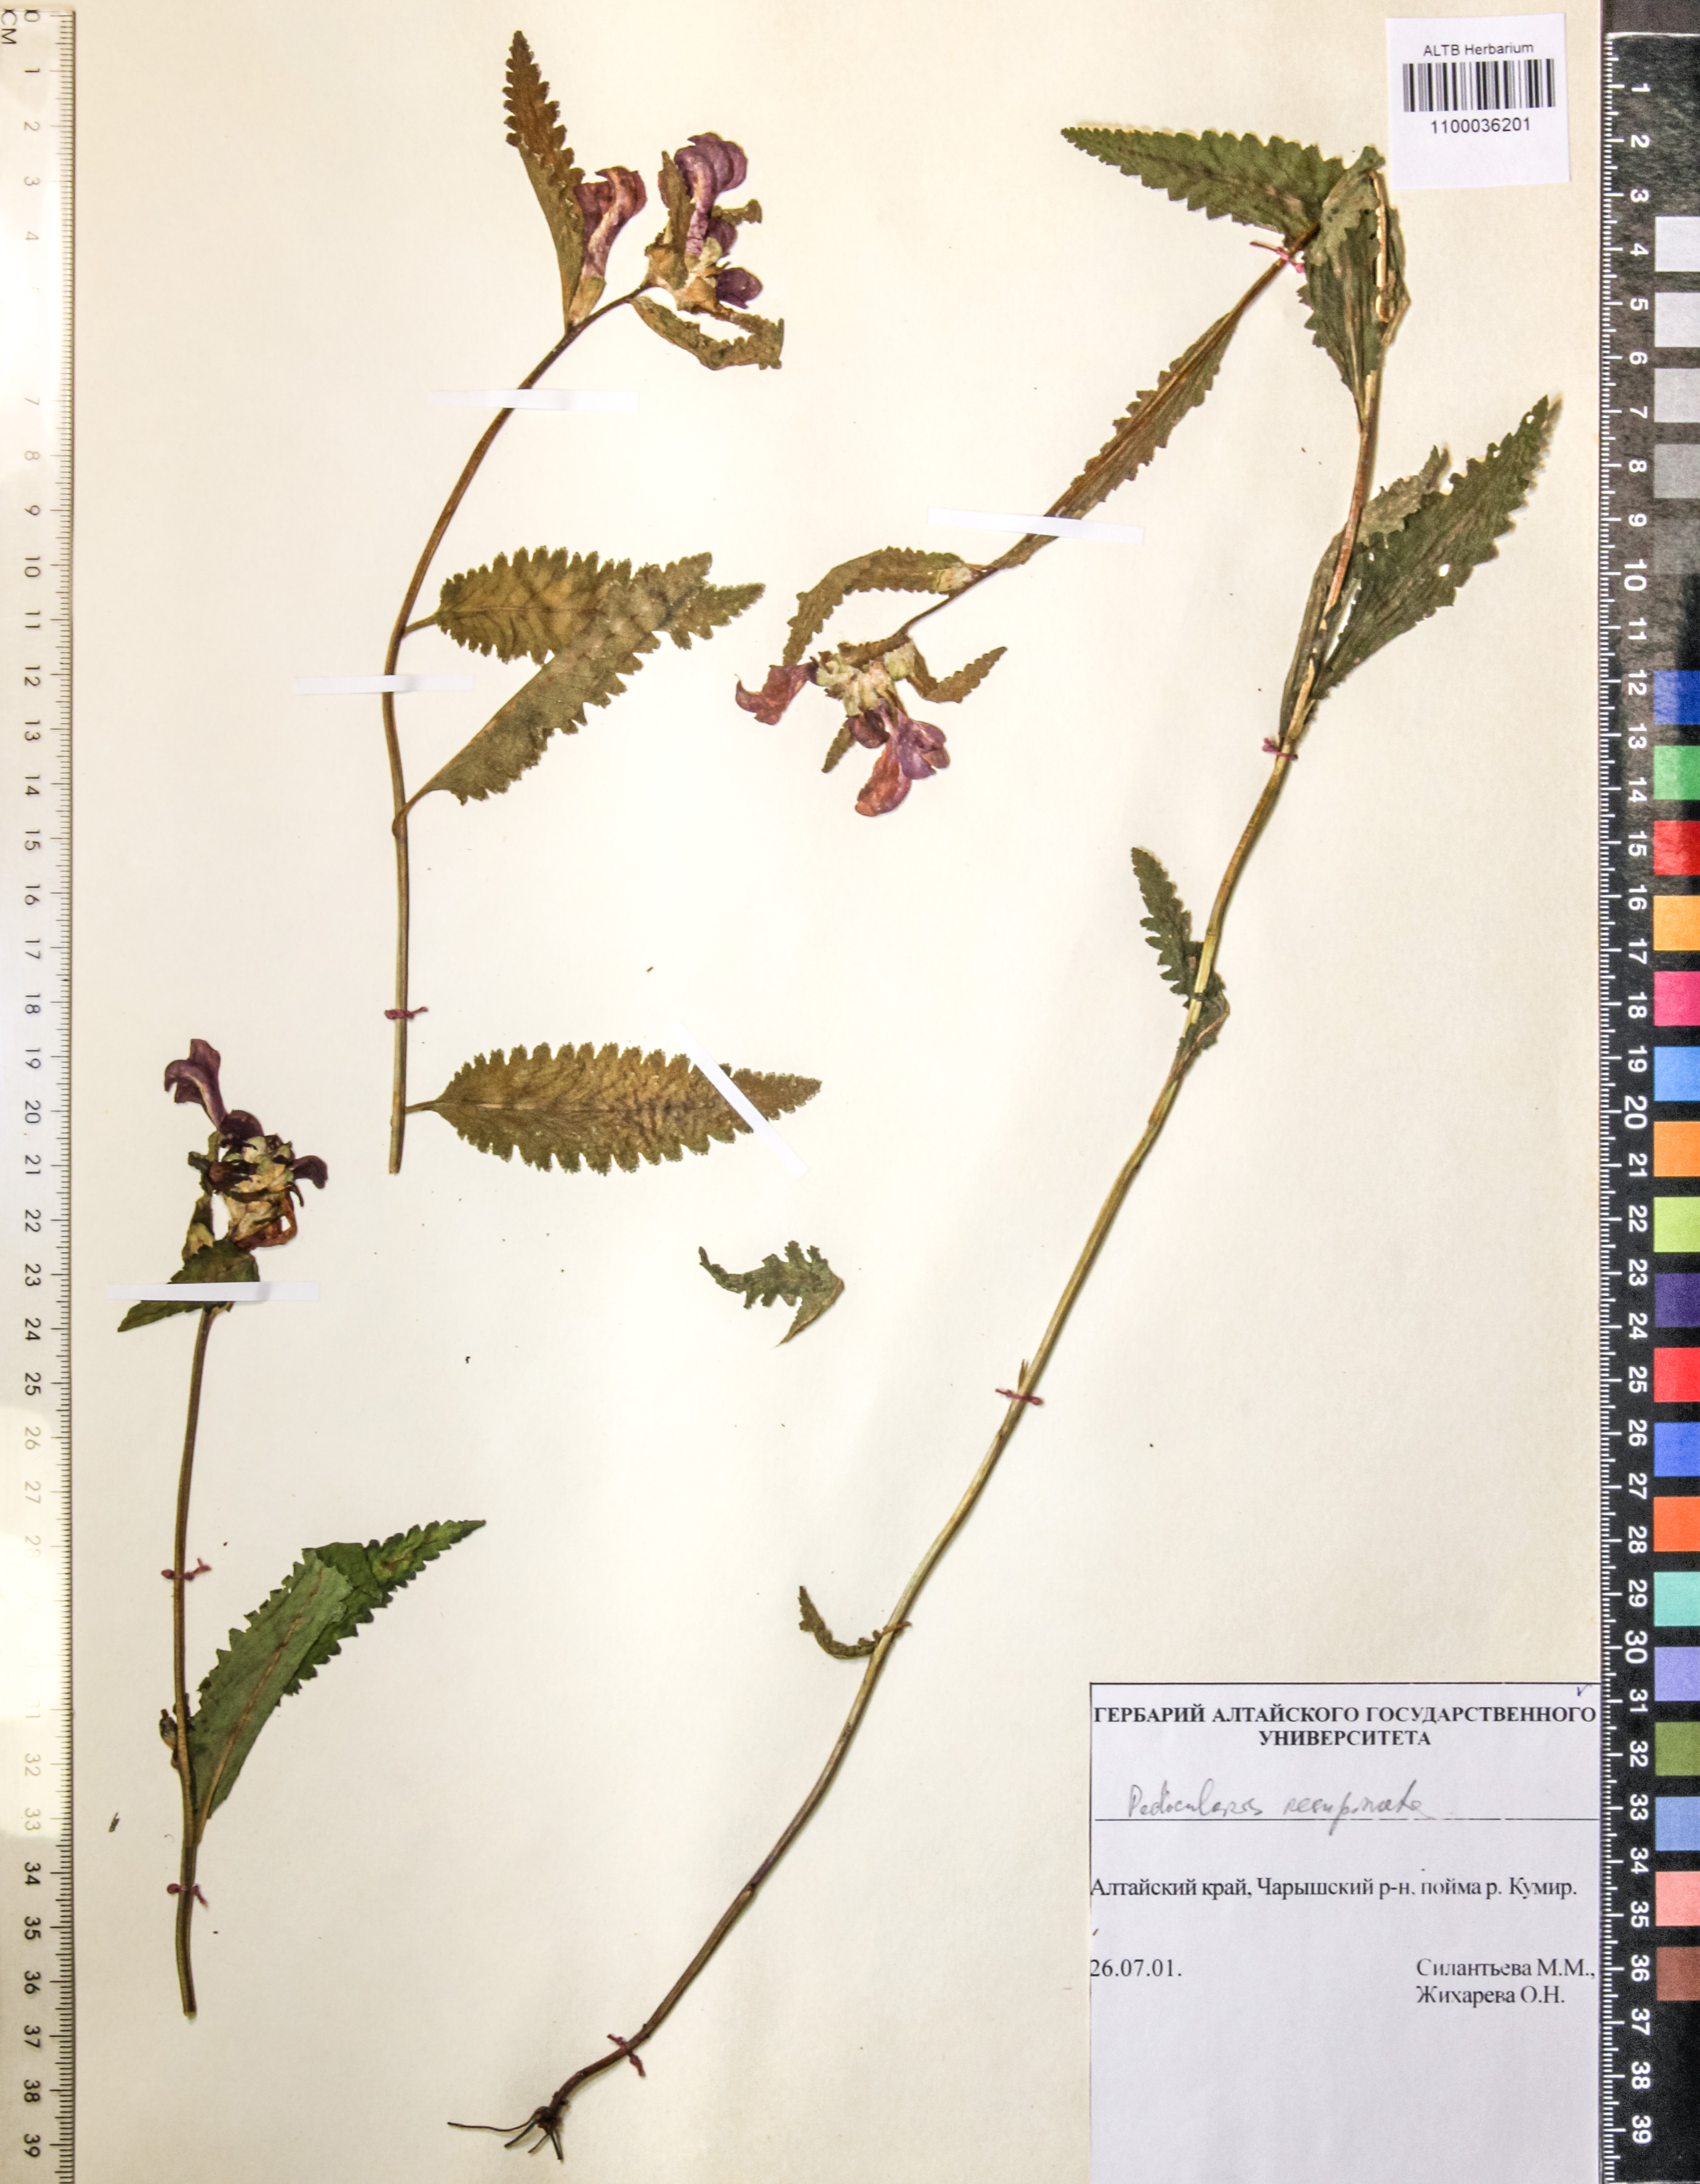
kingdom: Plantae
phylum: Tracheophyta
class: Magnoliopsida
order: Lamiales
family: Orobanchaceae
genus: Pedicularis
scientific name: Pedicularis resupinata
